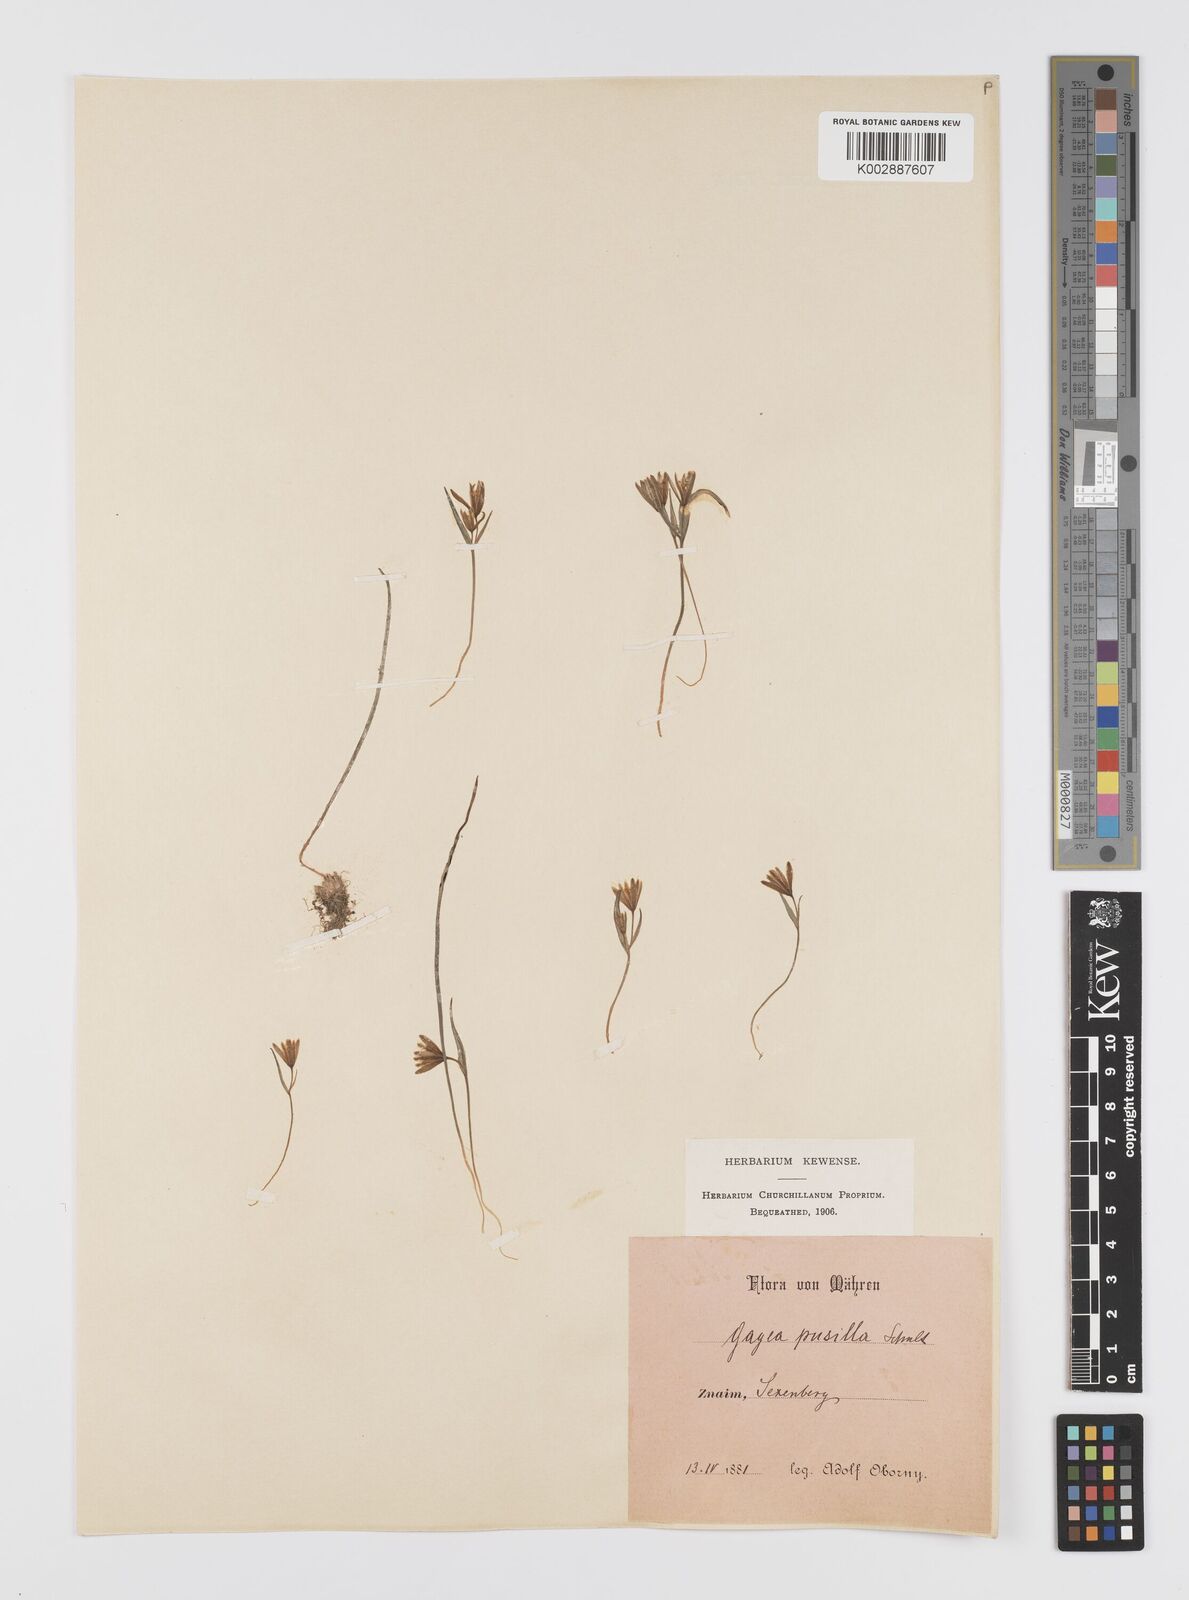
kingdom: Plantae
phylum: Tracheophyta
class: Liliopsida
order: Liliales
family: Liliaceae
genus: Gagea
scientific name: Gagea pusilla
